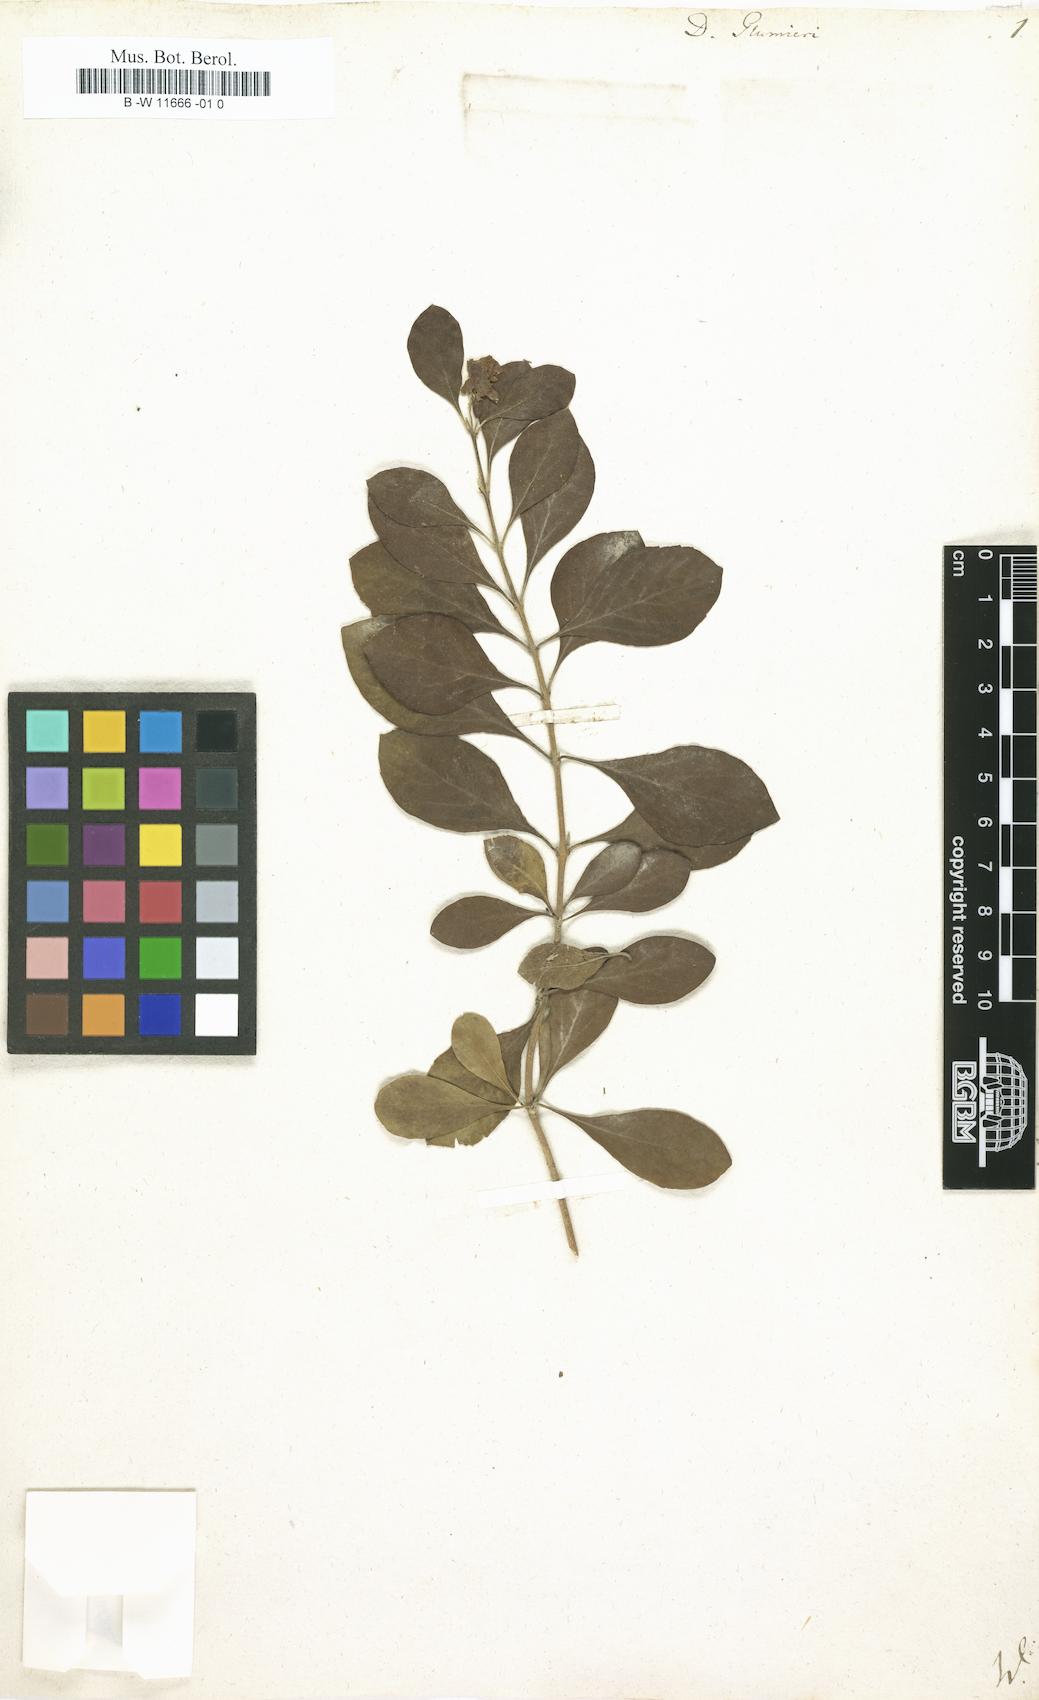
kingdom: Plantae
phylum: Tracheophyta
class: Magnoliopsida
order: Lamiales
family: Verbenaceae
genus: Duranta
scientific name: Duranta erecta
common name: Golden dewdrops
